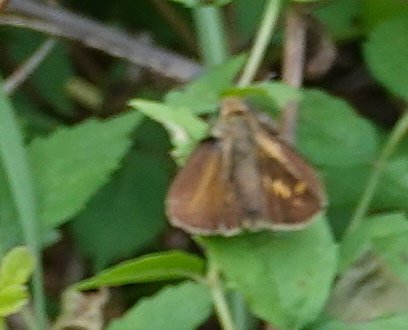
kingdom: Animalia
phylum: Arthropoda
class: Insecta
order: Lepidoptera
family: Hesperiidae
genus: Euphyes
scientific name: Euphyes dion
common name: Dion Skipper
